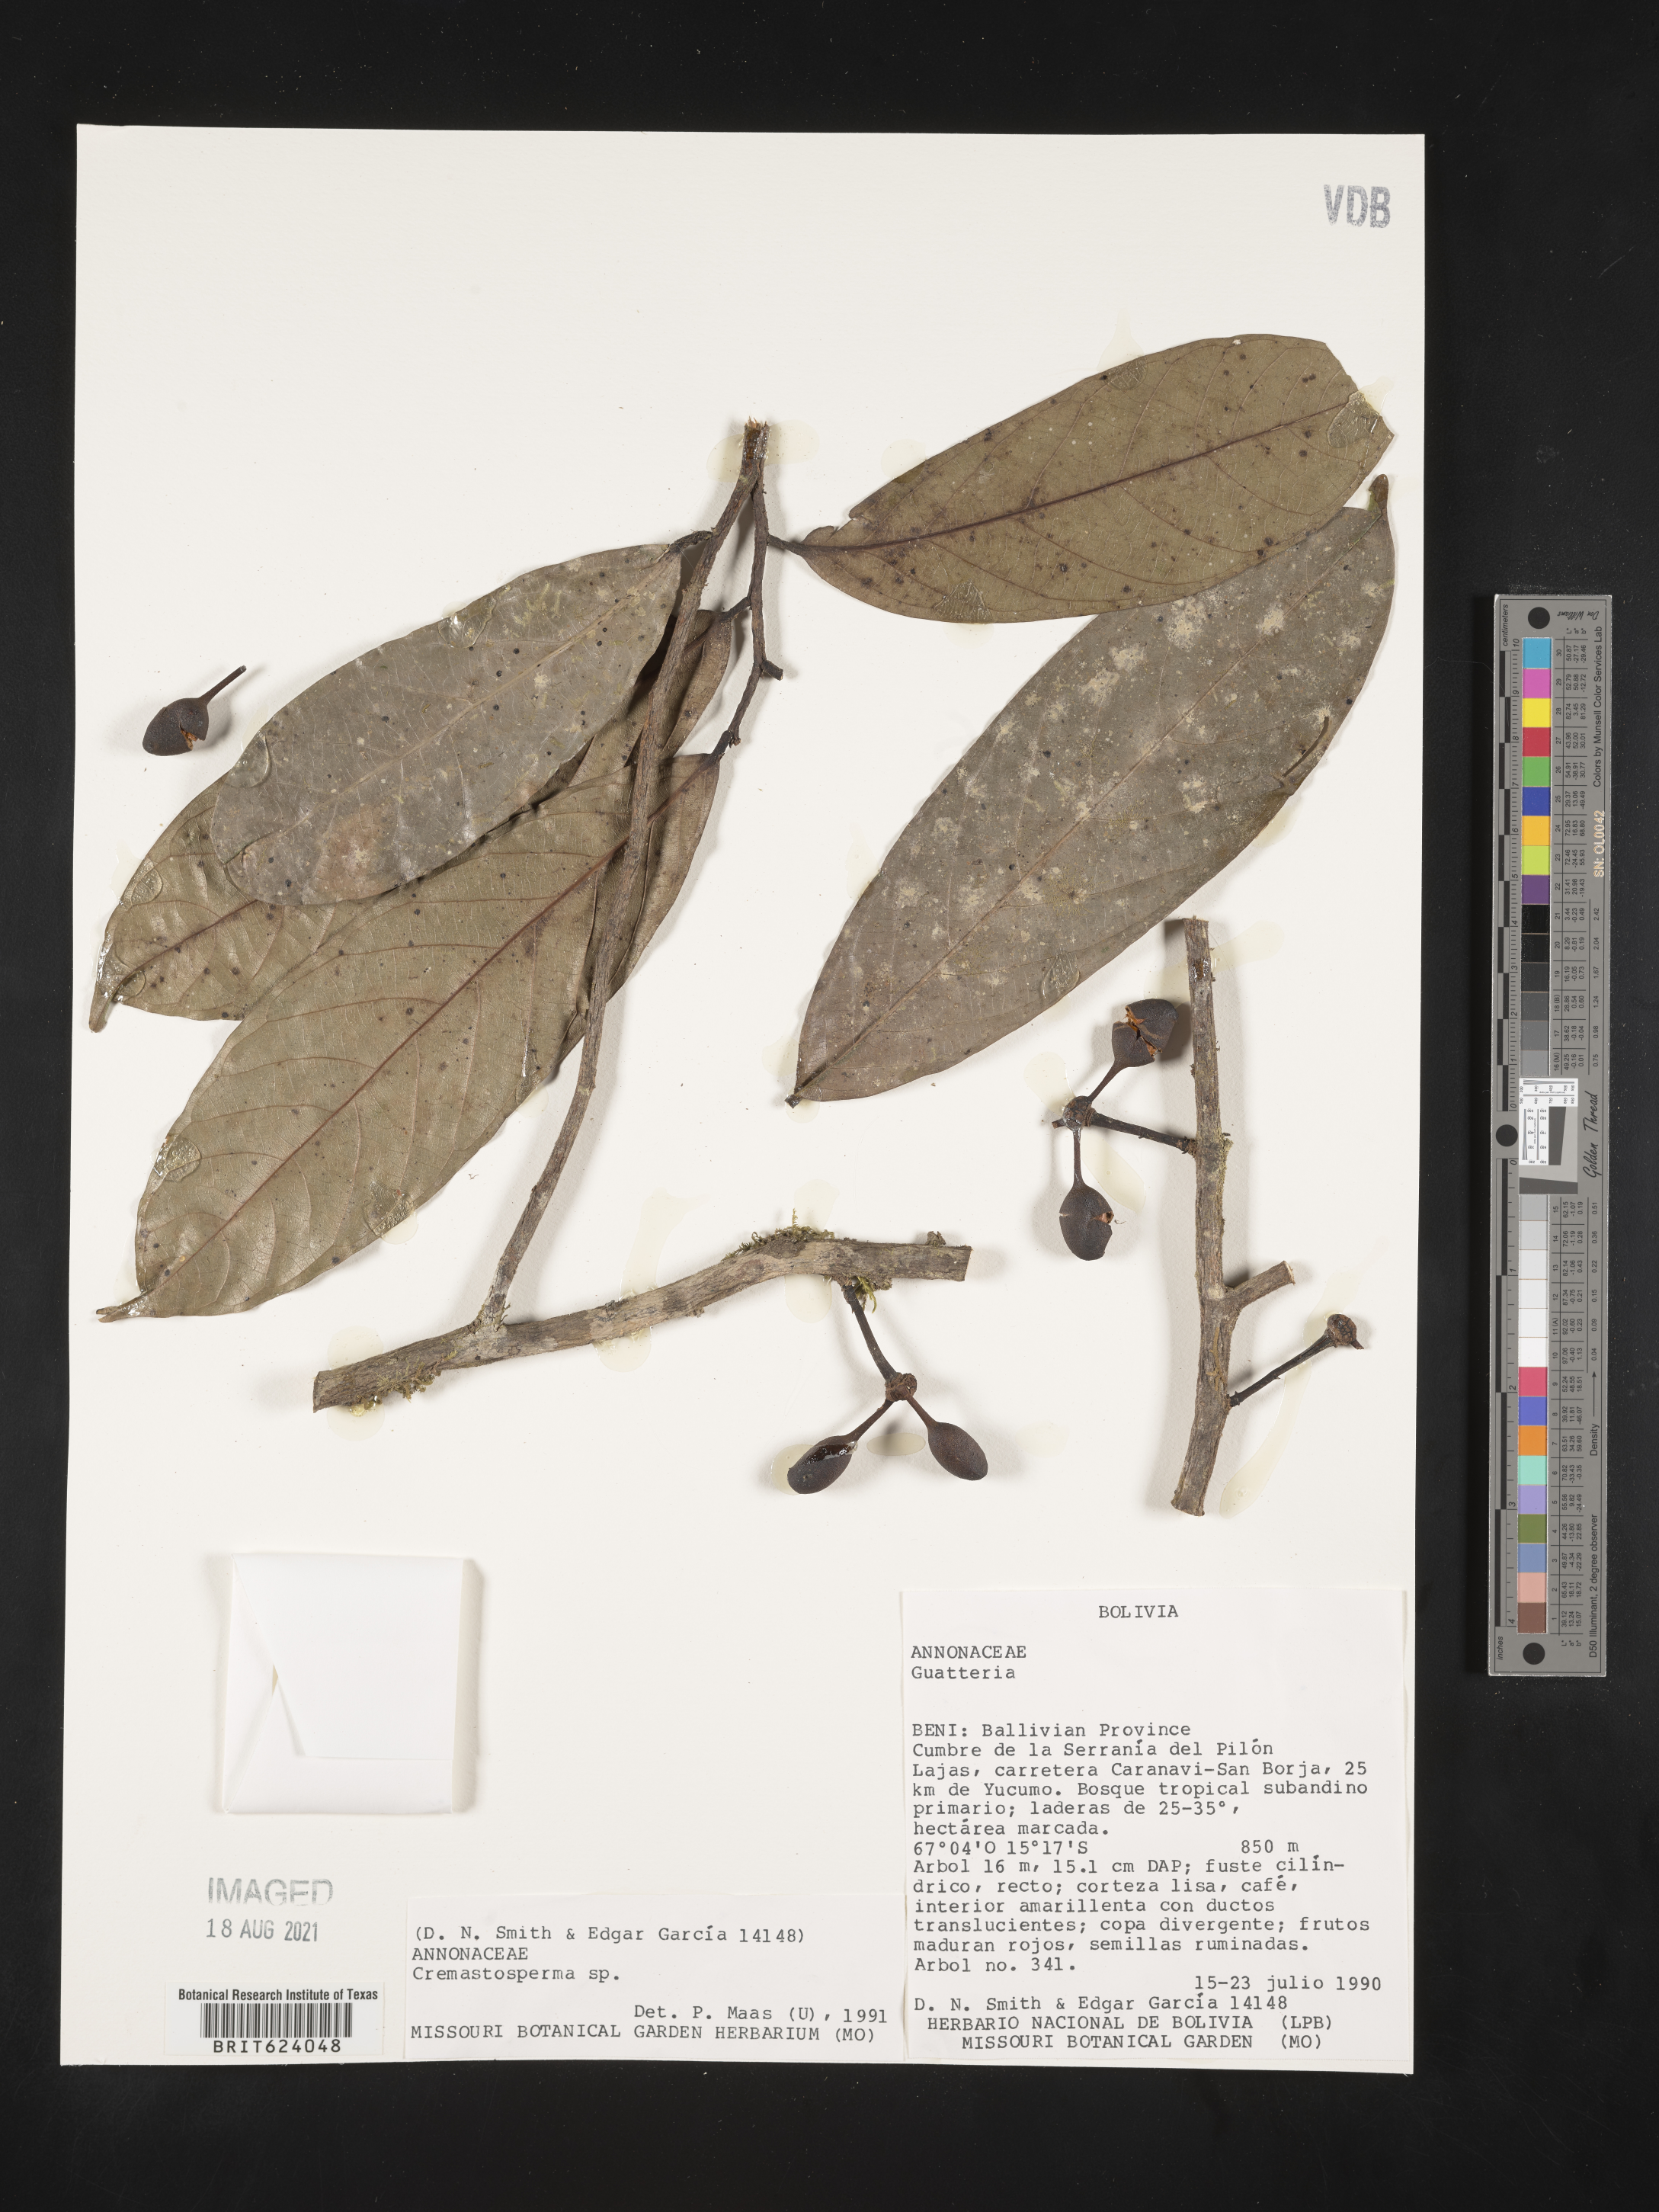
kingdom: Plantae
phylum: Tracheophyta
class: Magnoliopsida
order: Magnoliales
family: Annonaceae
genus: Cremastosperma
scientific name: Cremastosperma
